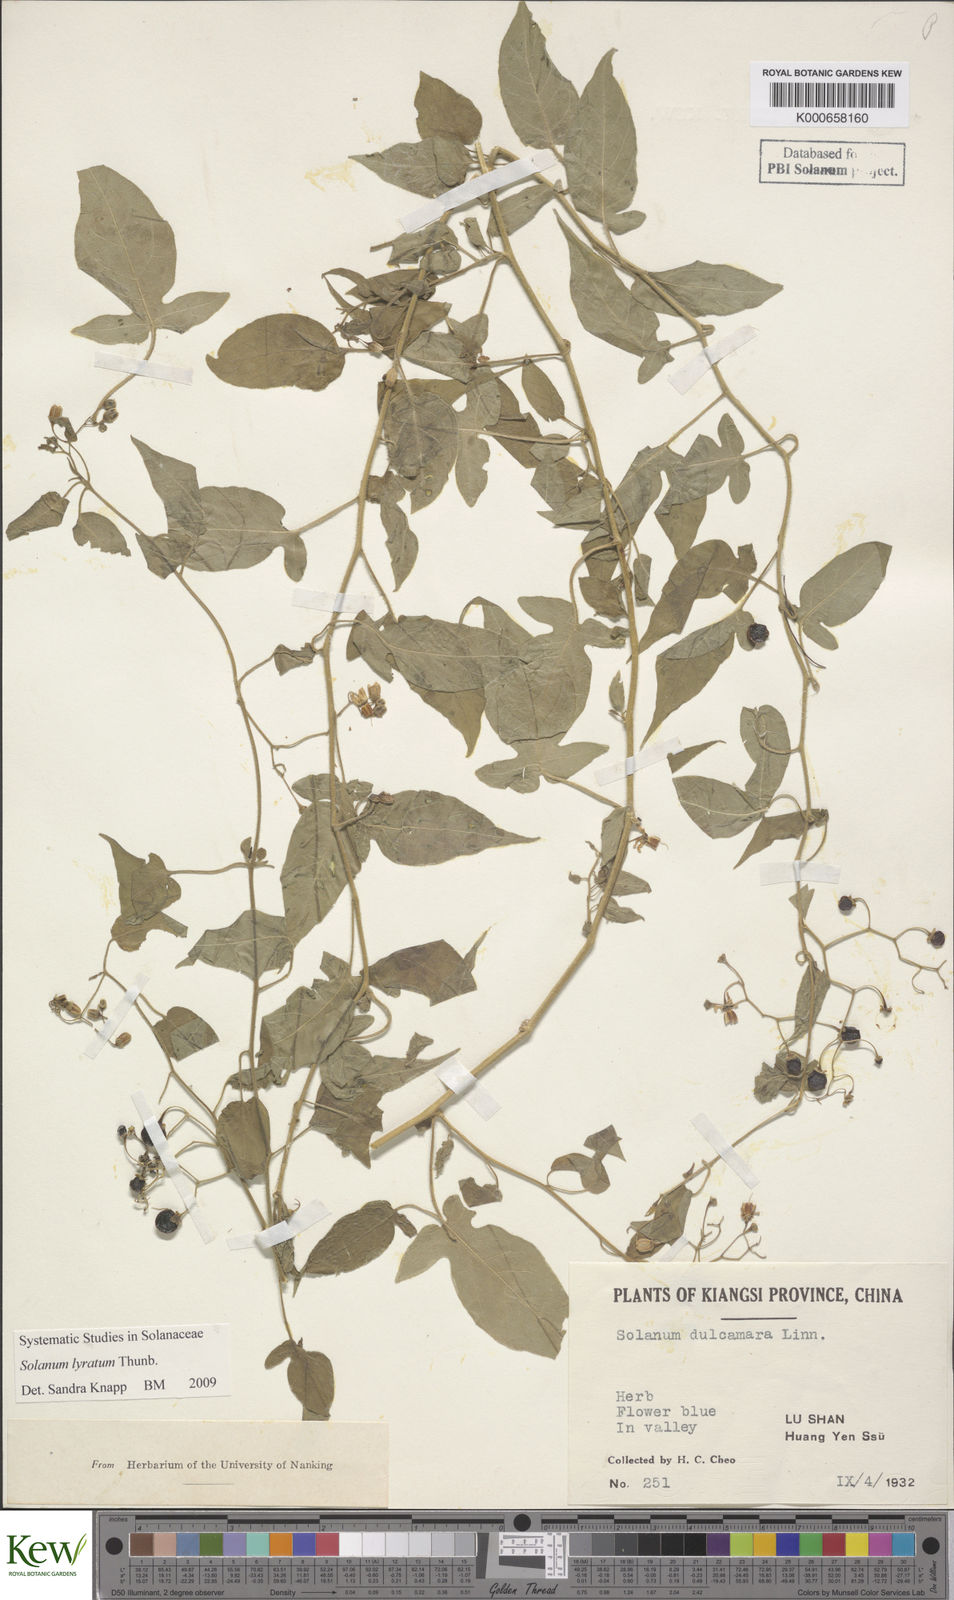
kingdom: Plantae
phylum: Tracheophyta
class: Magnoliopsida
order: Solanales
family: Solanaceae
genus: Solanum
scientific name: Solanum lyratum
